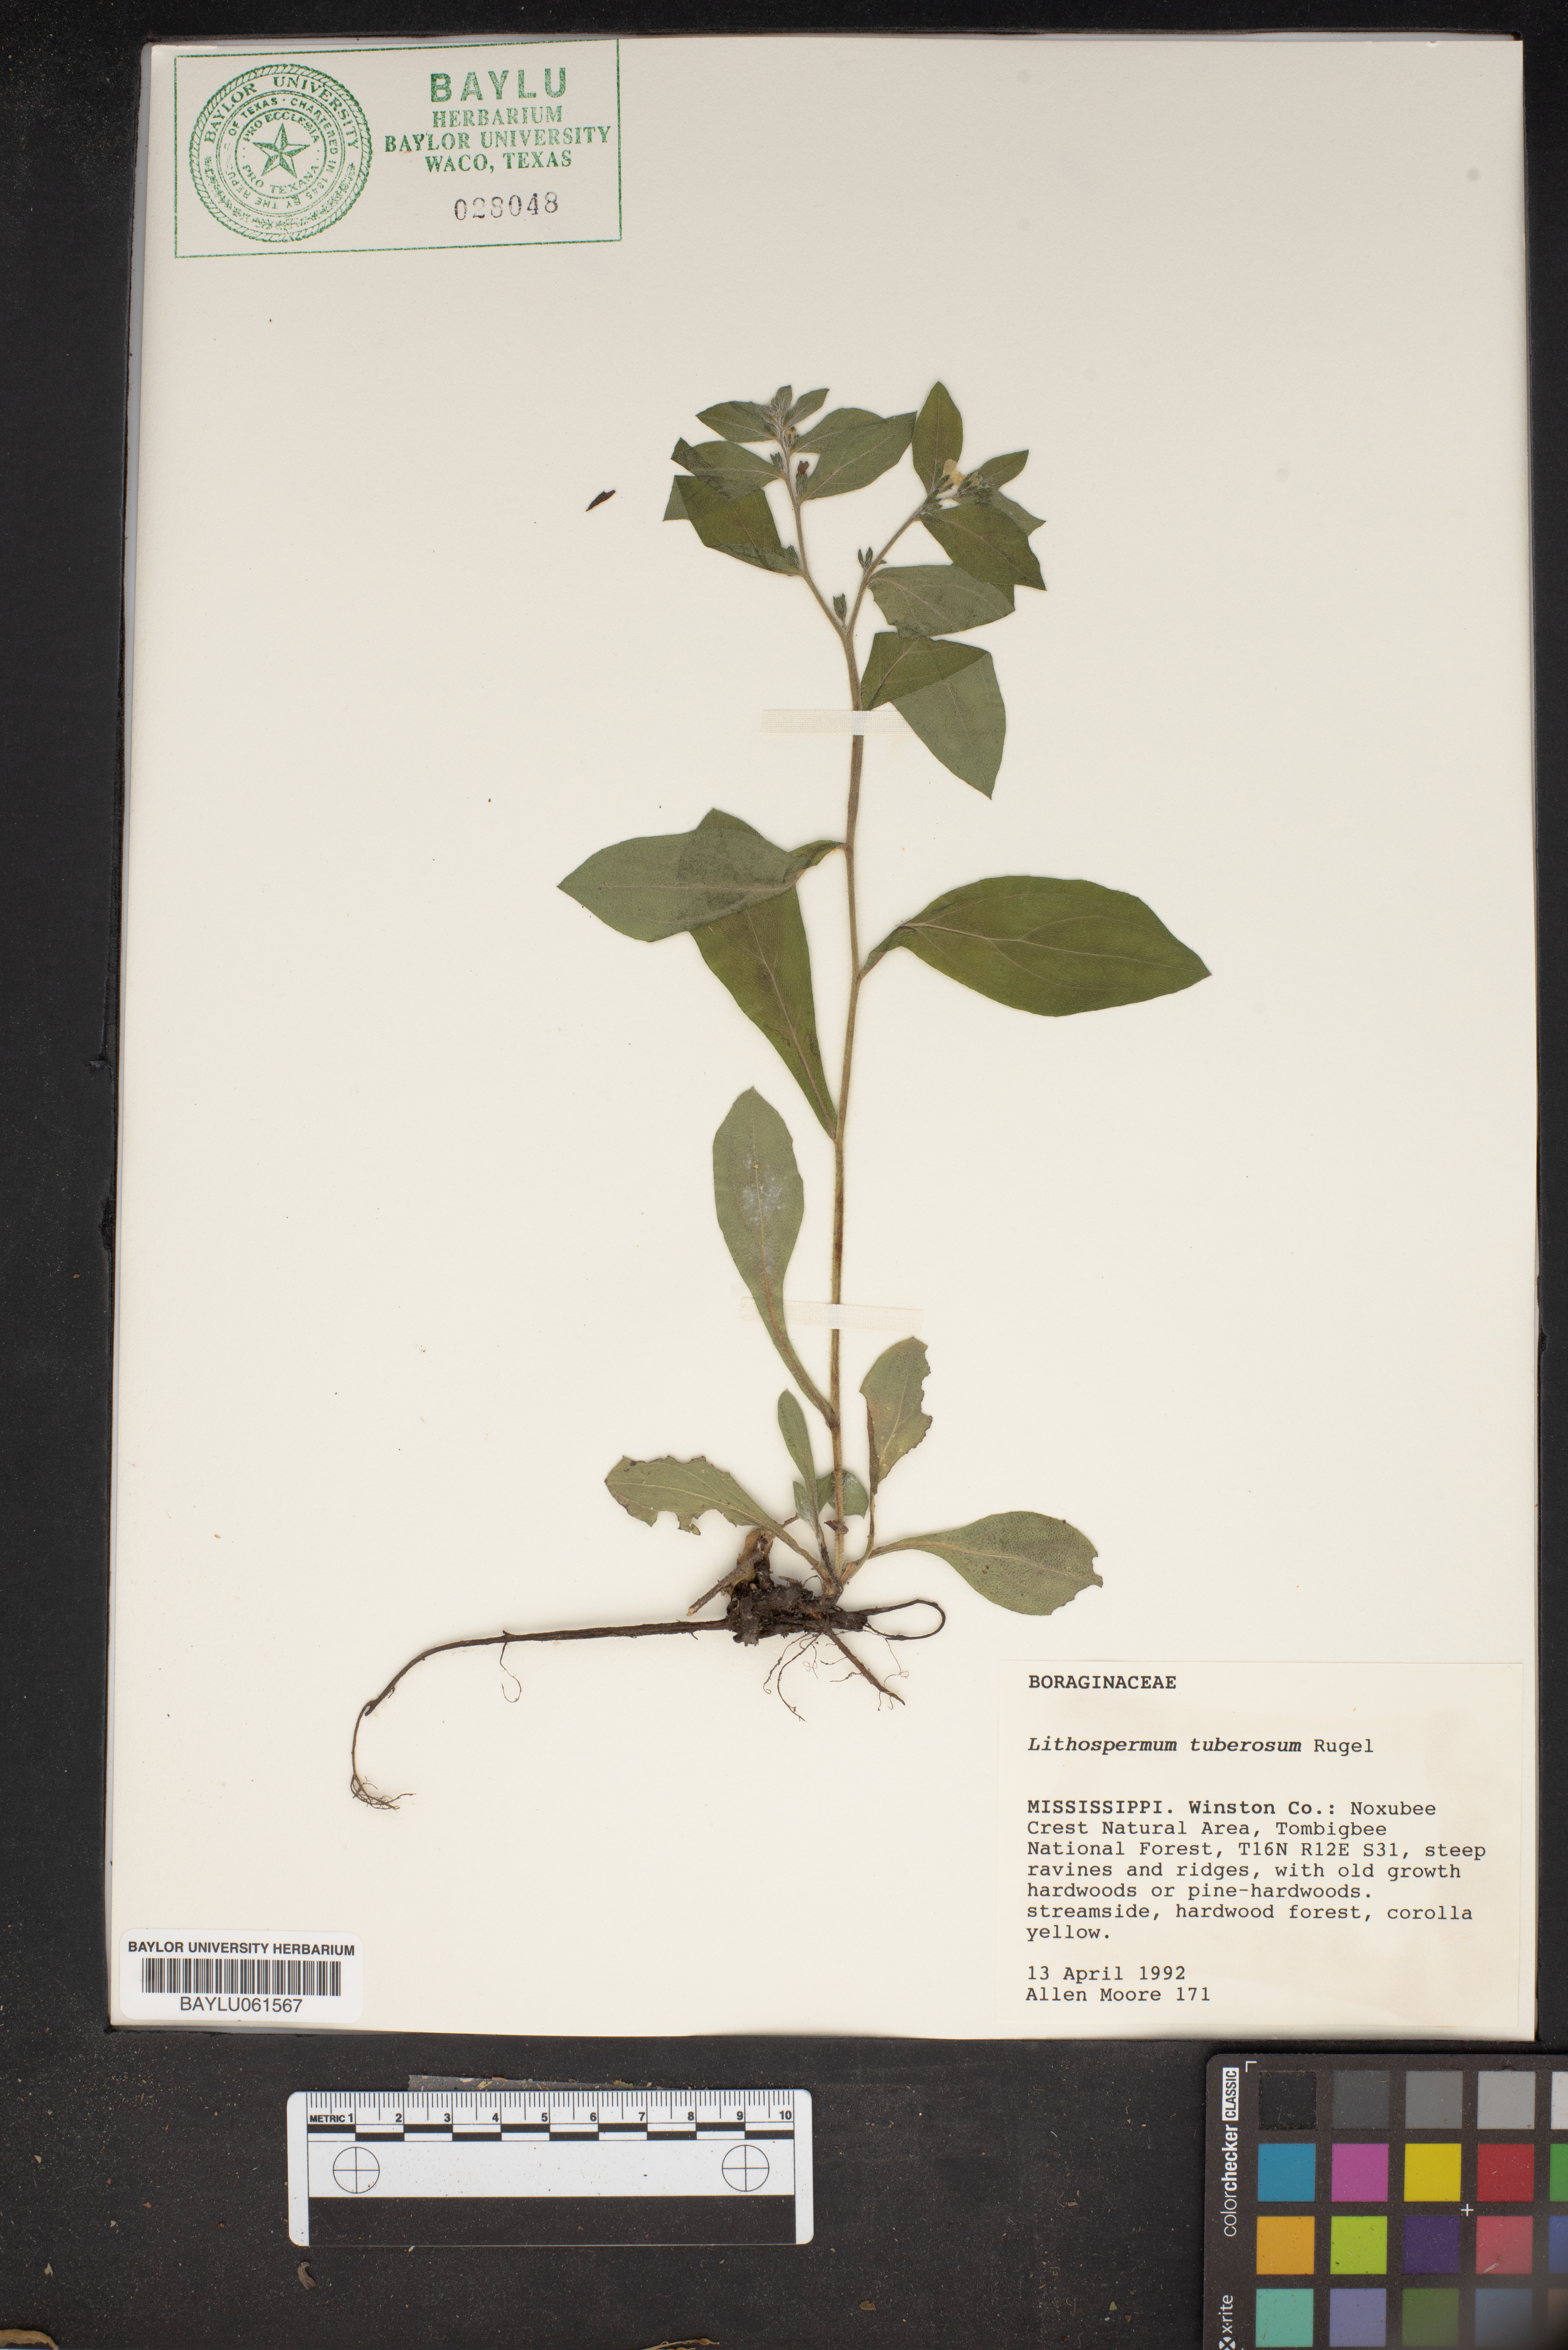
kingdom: Plantae
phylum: Tracheophyta
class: Magnoliopsida
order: Boraginales
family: Boraginaceae
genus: Lithospermum
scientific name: Lithospermum tuberosum
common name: Southern stoneseed
